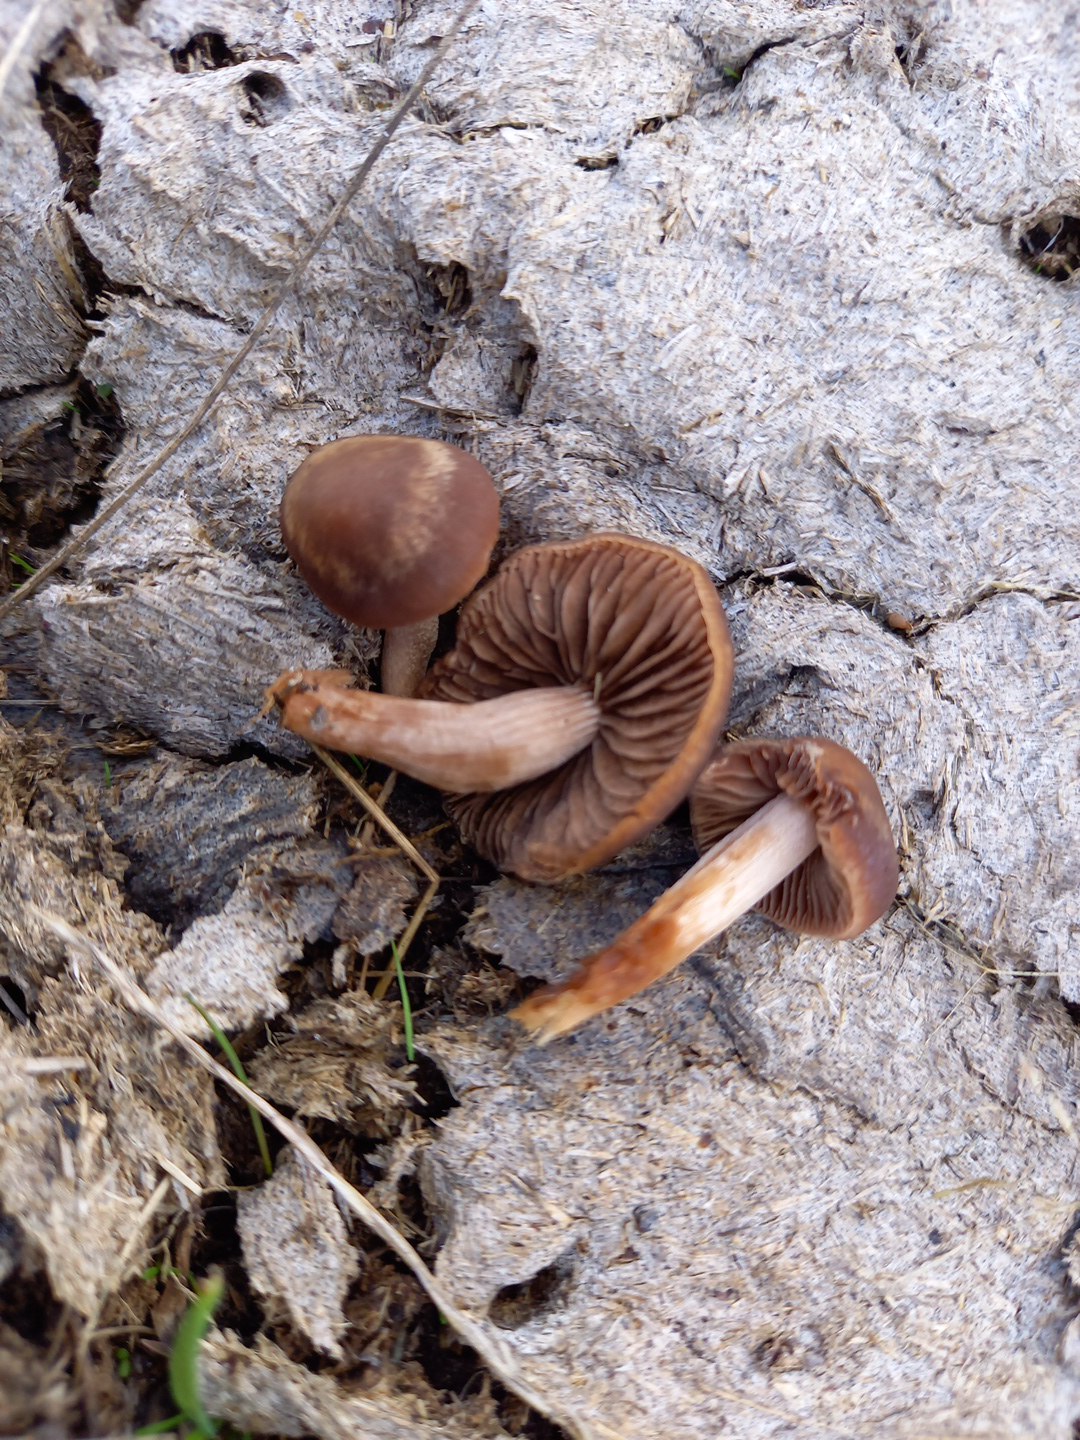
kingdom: Fungi
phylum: Basidiomycota
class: Agaricomycetes
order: Agaricales
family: Bolbitiaceae
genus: Panaeolina
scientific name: Panaeolina foenisecii
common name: høslætsvamp
